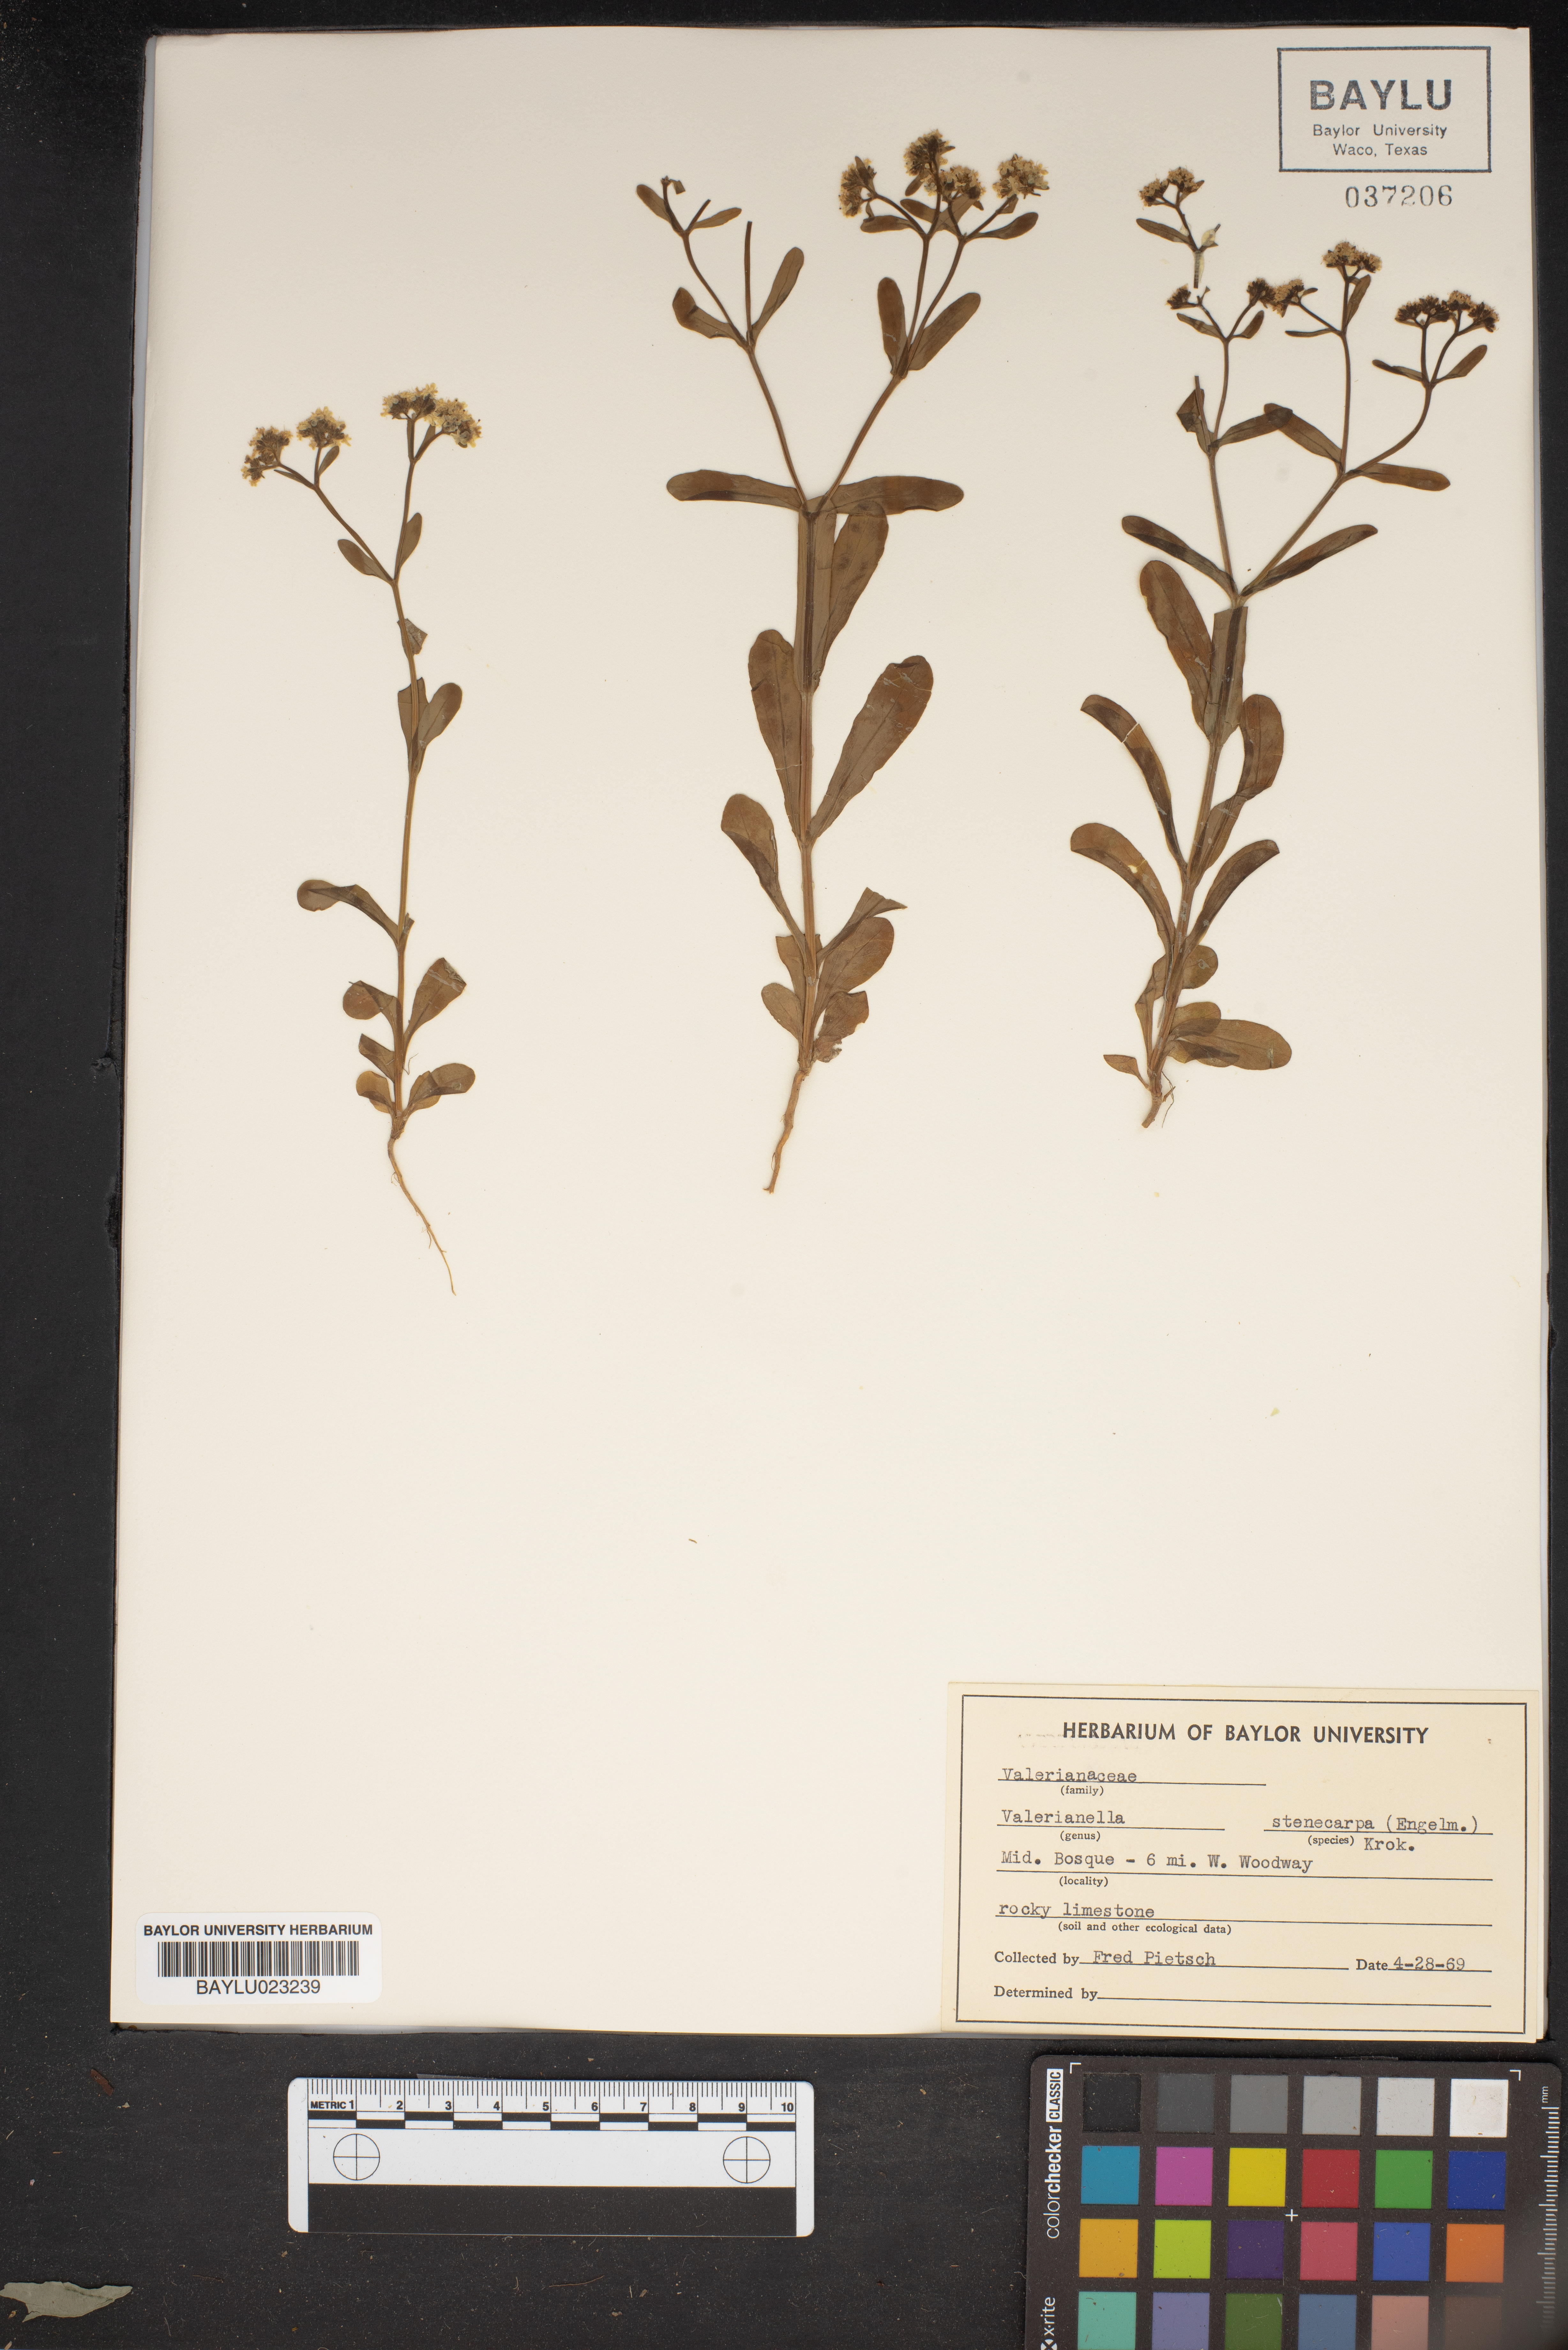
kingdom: Plantae
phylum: Tracheophyta
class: Magnoliopsida
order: Dipsacales
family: Caprifoliaceae
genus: Valerianella
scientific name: Valerianella stenocarpa
